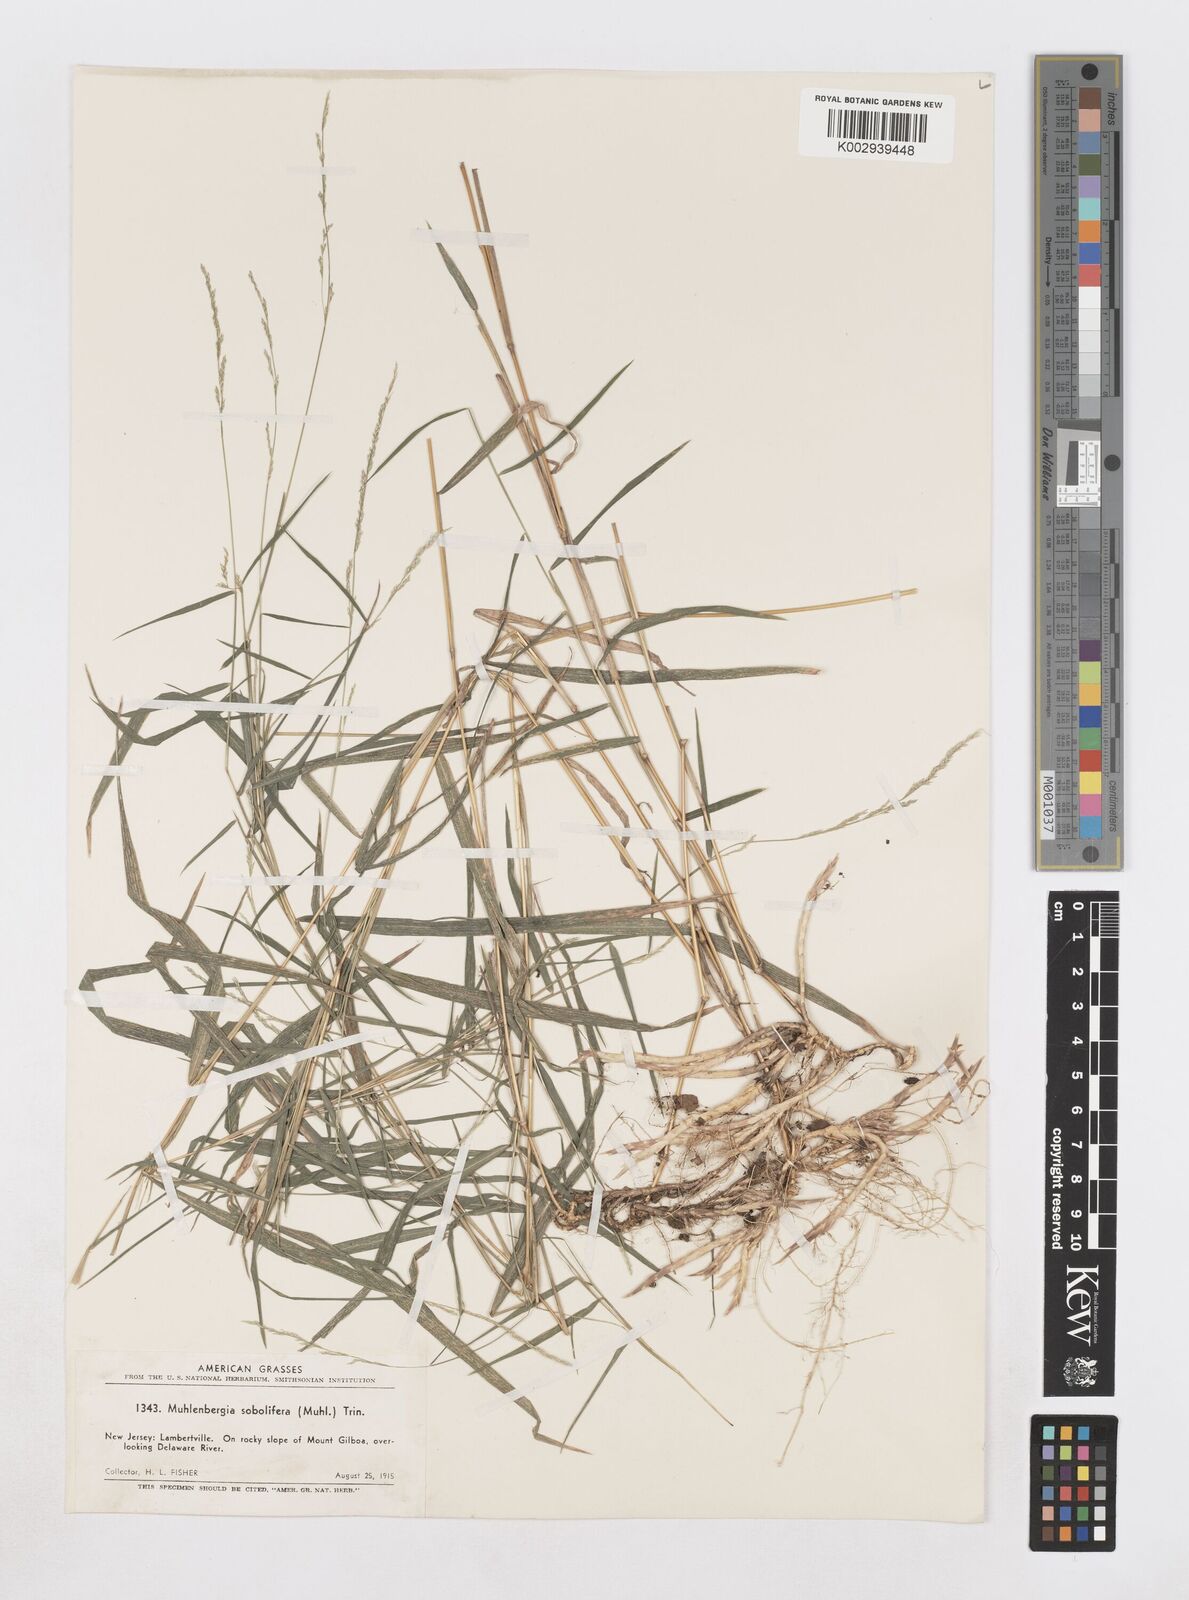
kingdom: Plantae
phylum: Tracheophyta
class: Liliopsida
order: Poales
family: Poaceae
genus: Muhlenbergia
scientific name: Muhlenbergia sobolifera
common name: Creeping muhly
